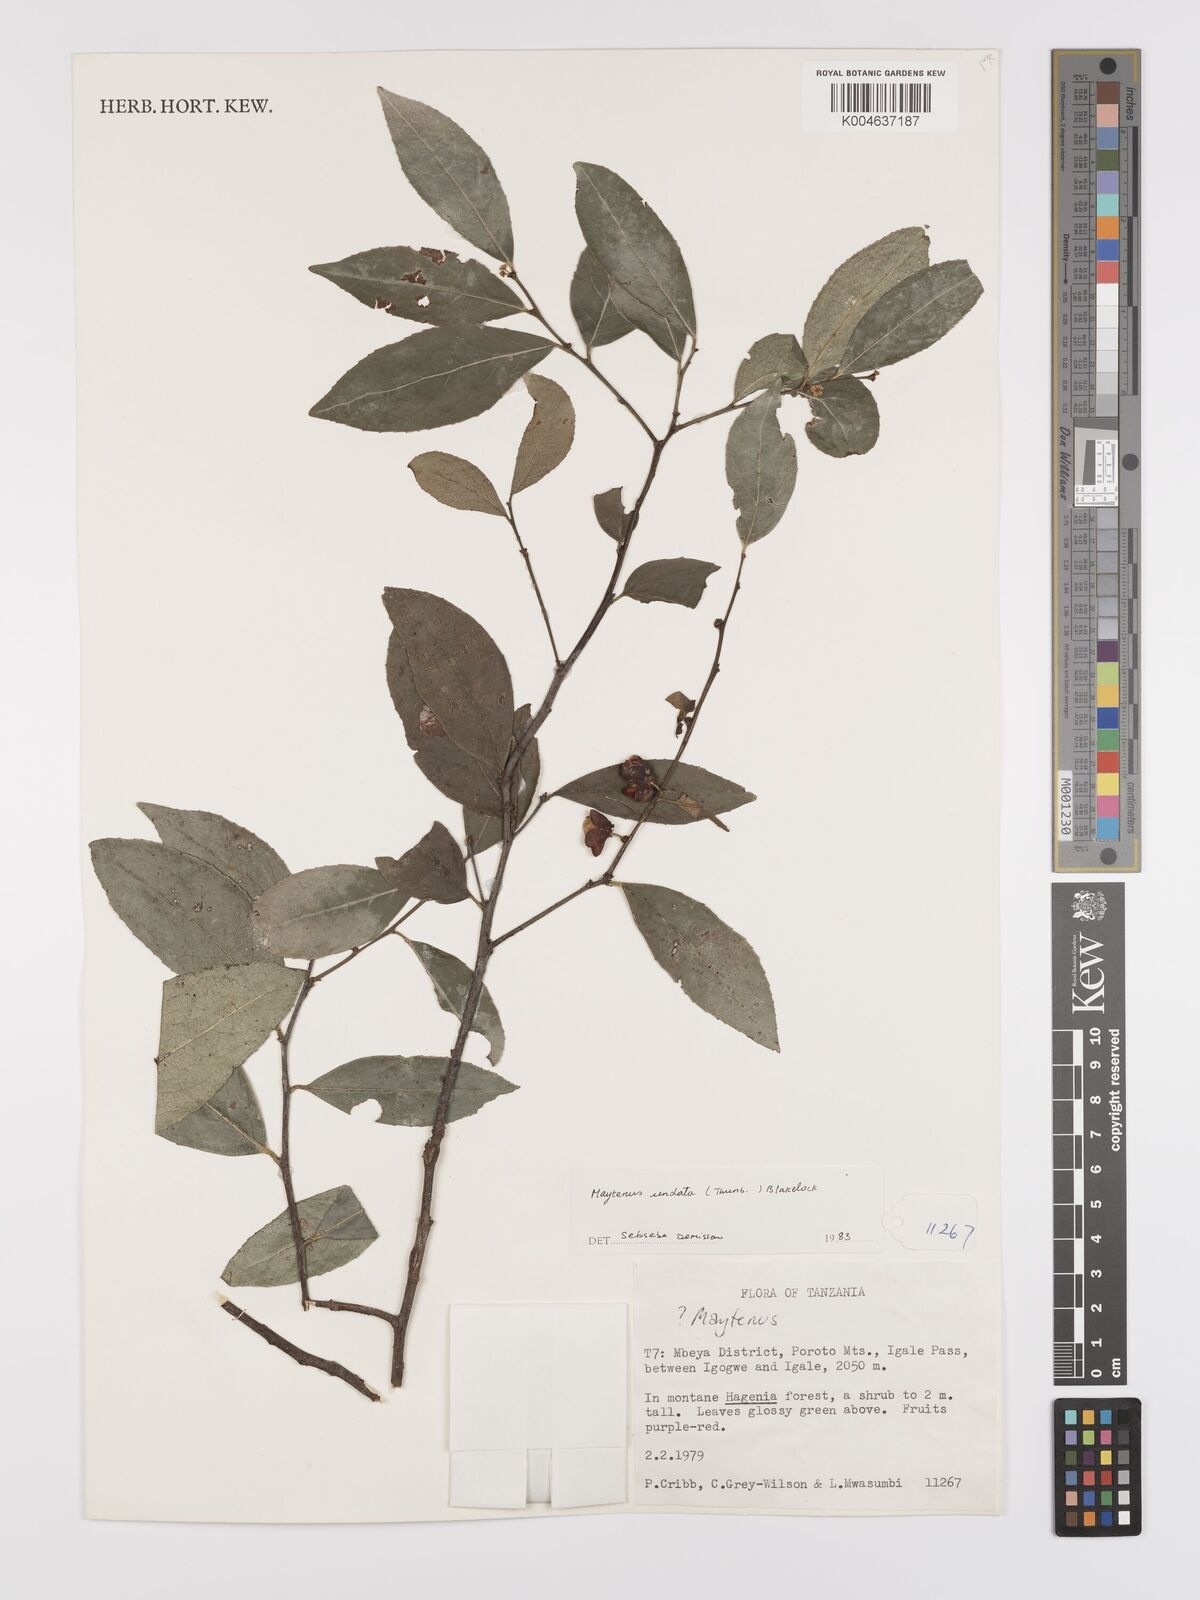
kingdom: Plantae
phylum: Tracheophyta
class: Magnoliopsida
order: Celastrales
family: Celastraceae
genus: Gymnosporia
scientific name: Gymnosporia undata
